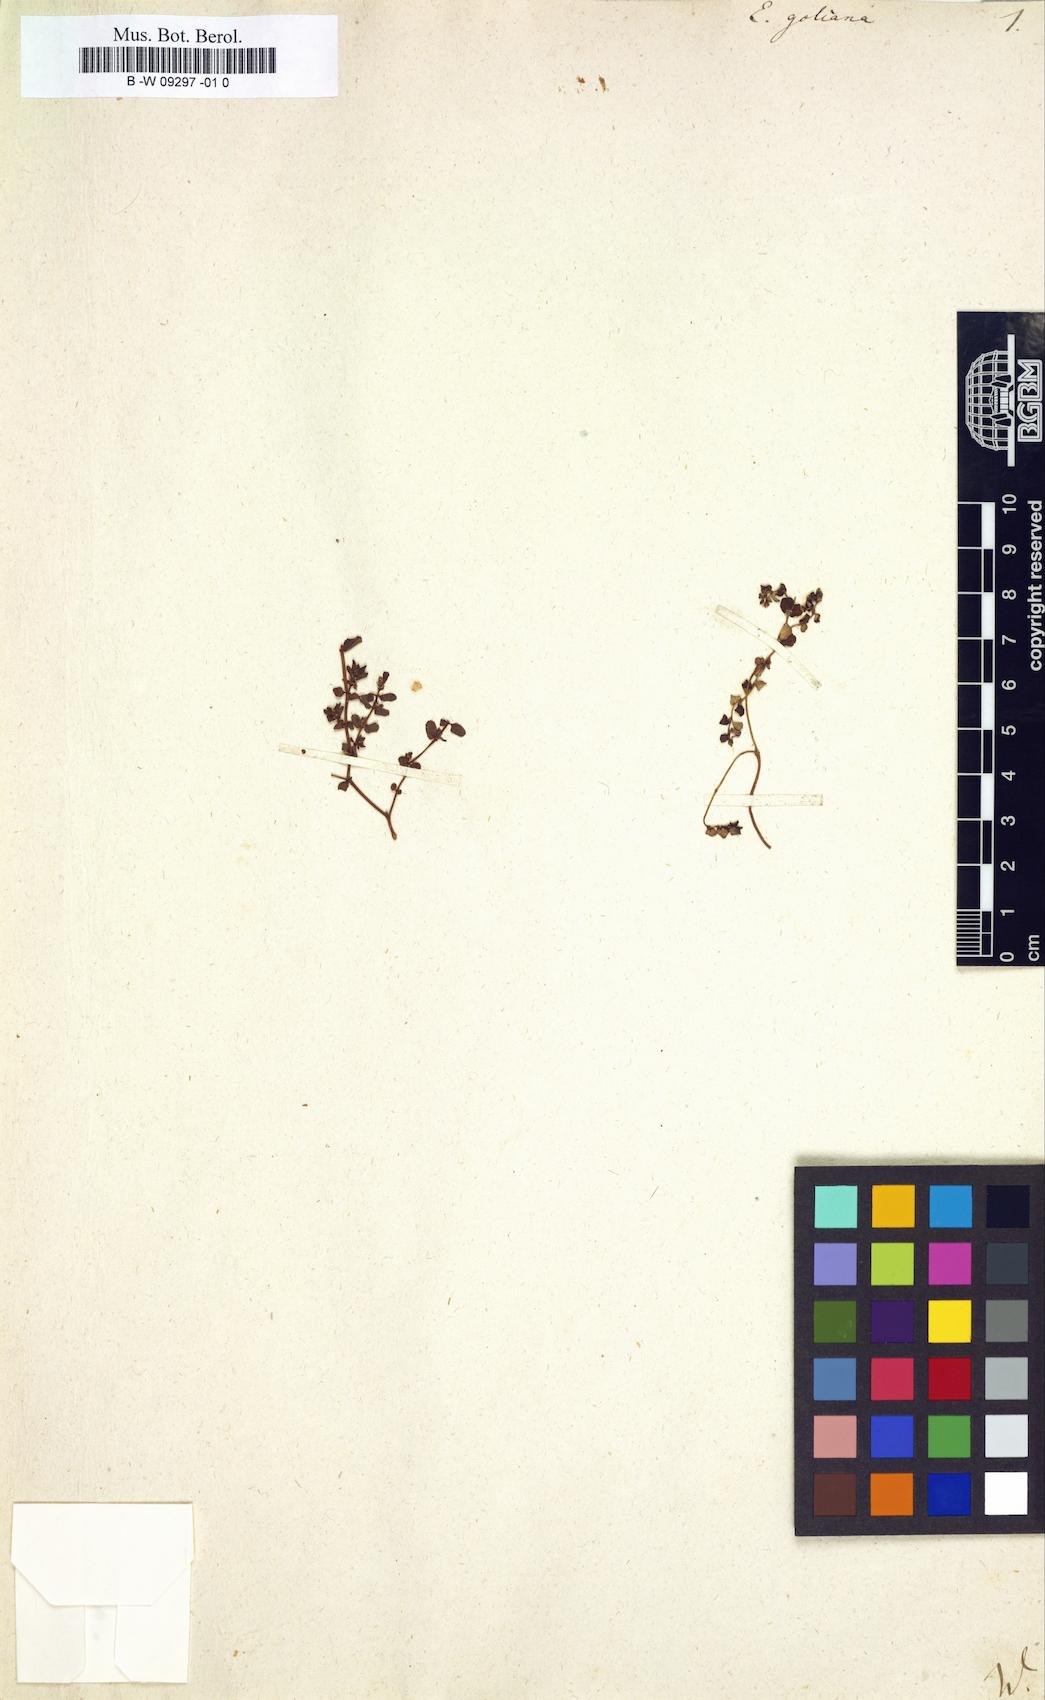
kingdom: Plantae
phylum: Tracheophyta
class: Magnoliopsida
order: Malpighiales
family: Euphorbiaceae
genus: Euphorbia
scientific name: Euphorbia goliana
